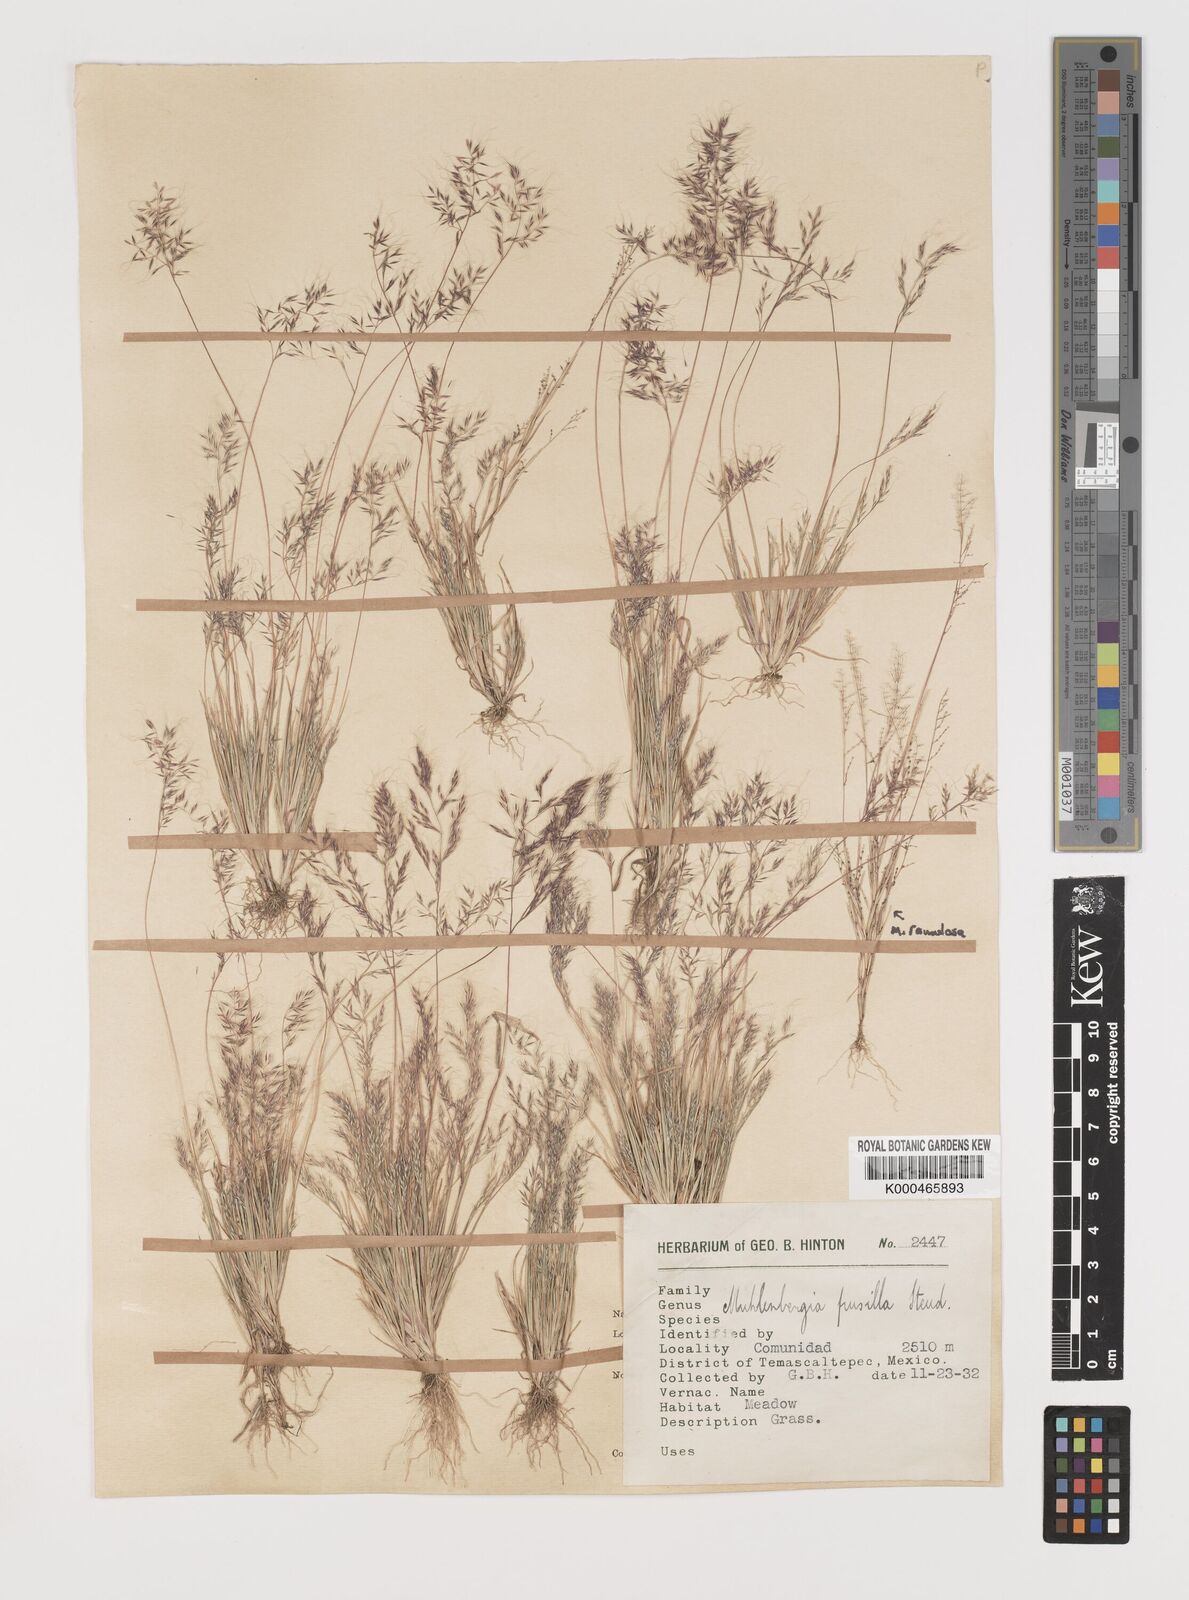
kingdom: Plantae
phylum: Tracheophyta
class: Liliopsida
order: Poales
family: Poaceae
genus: Muhlenbergia
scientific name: Muhlenbergia peruviana
